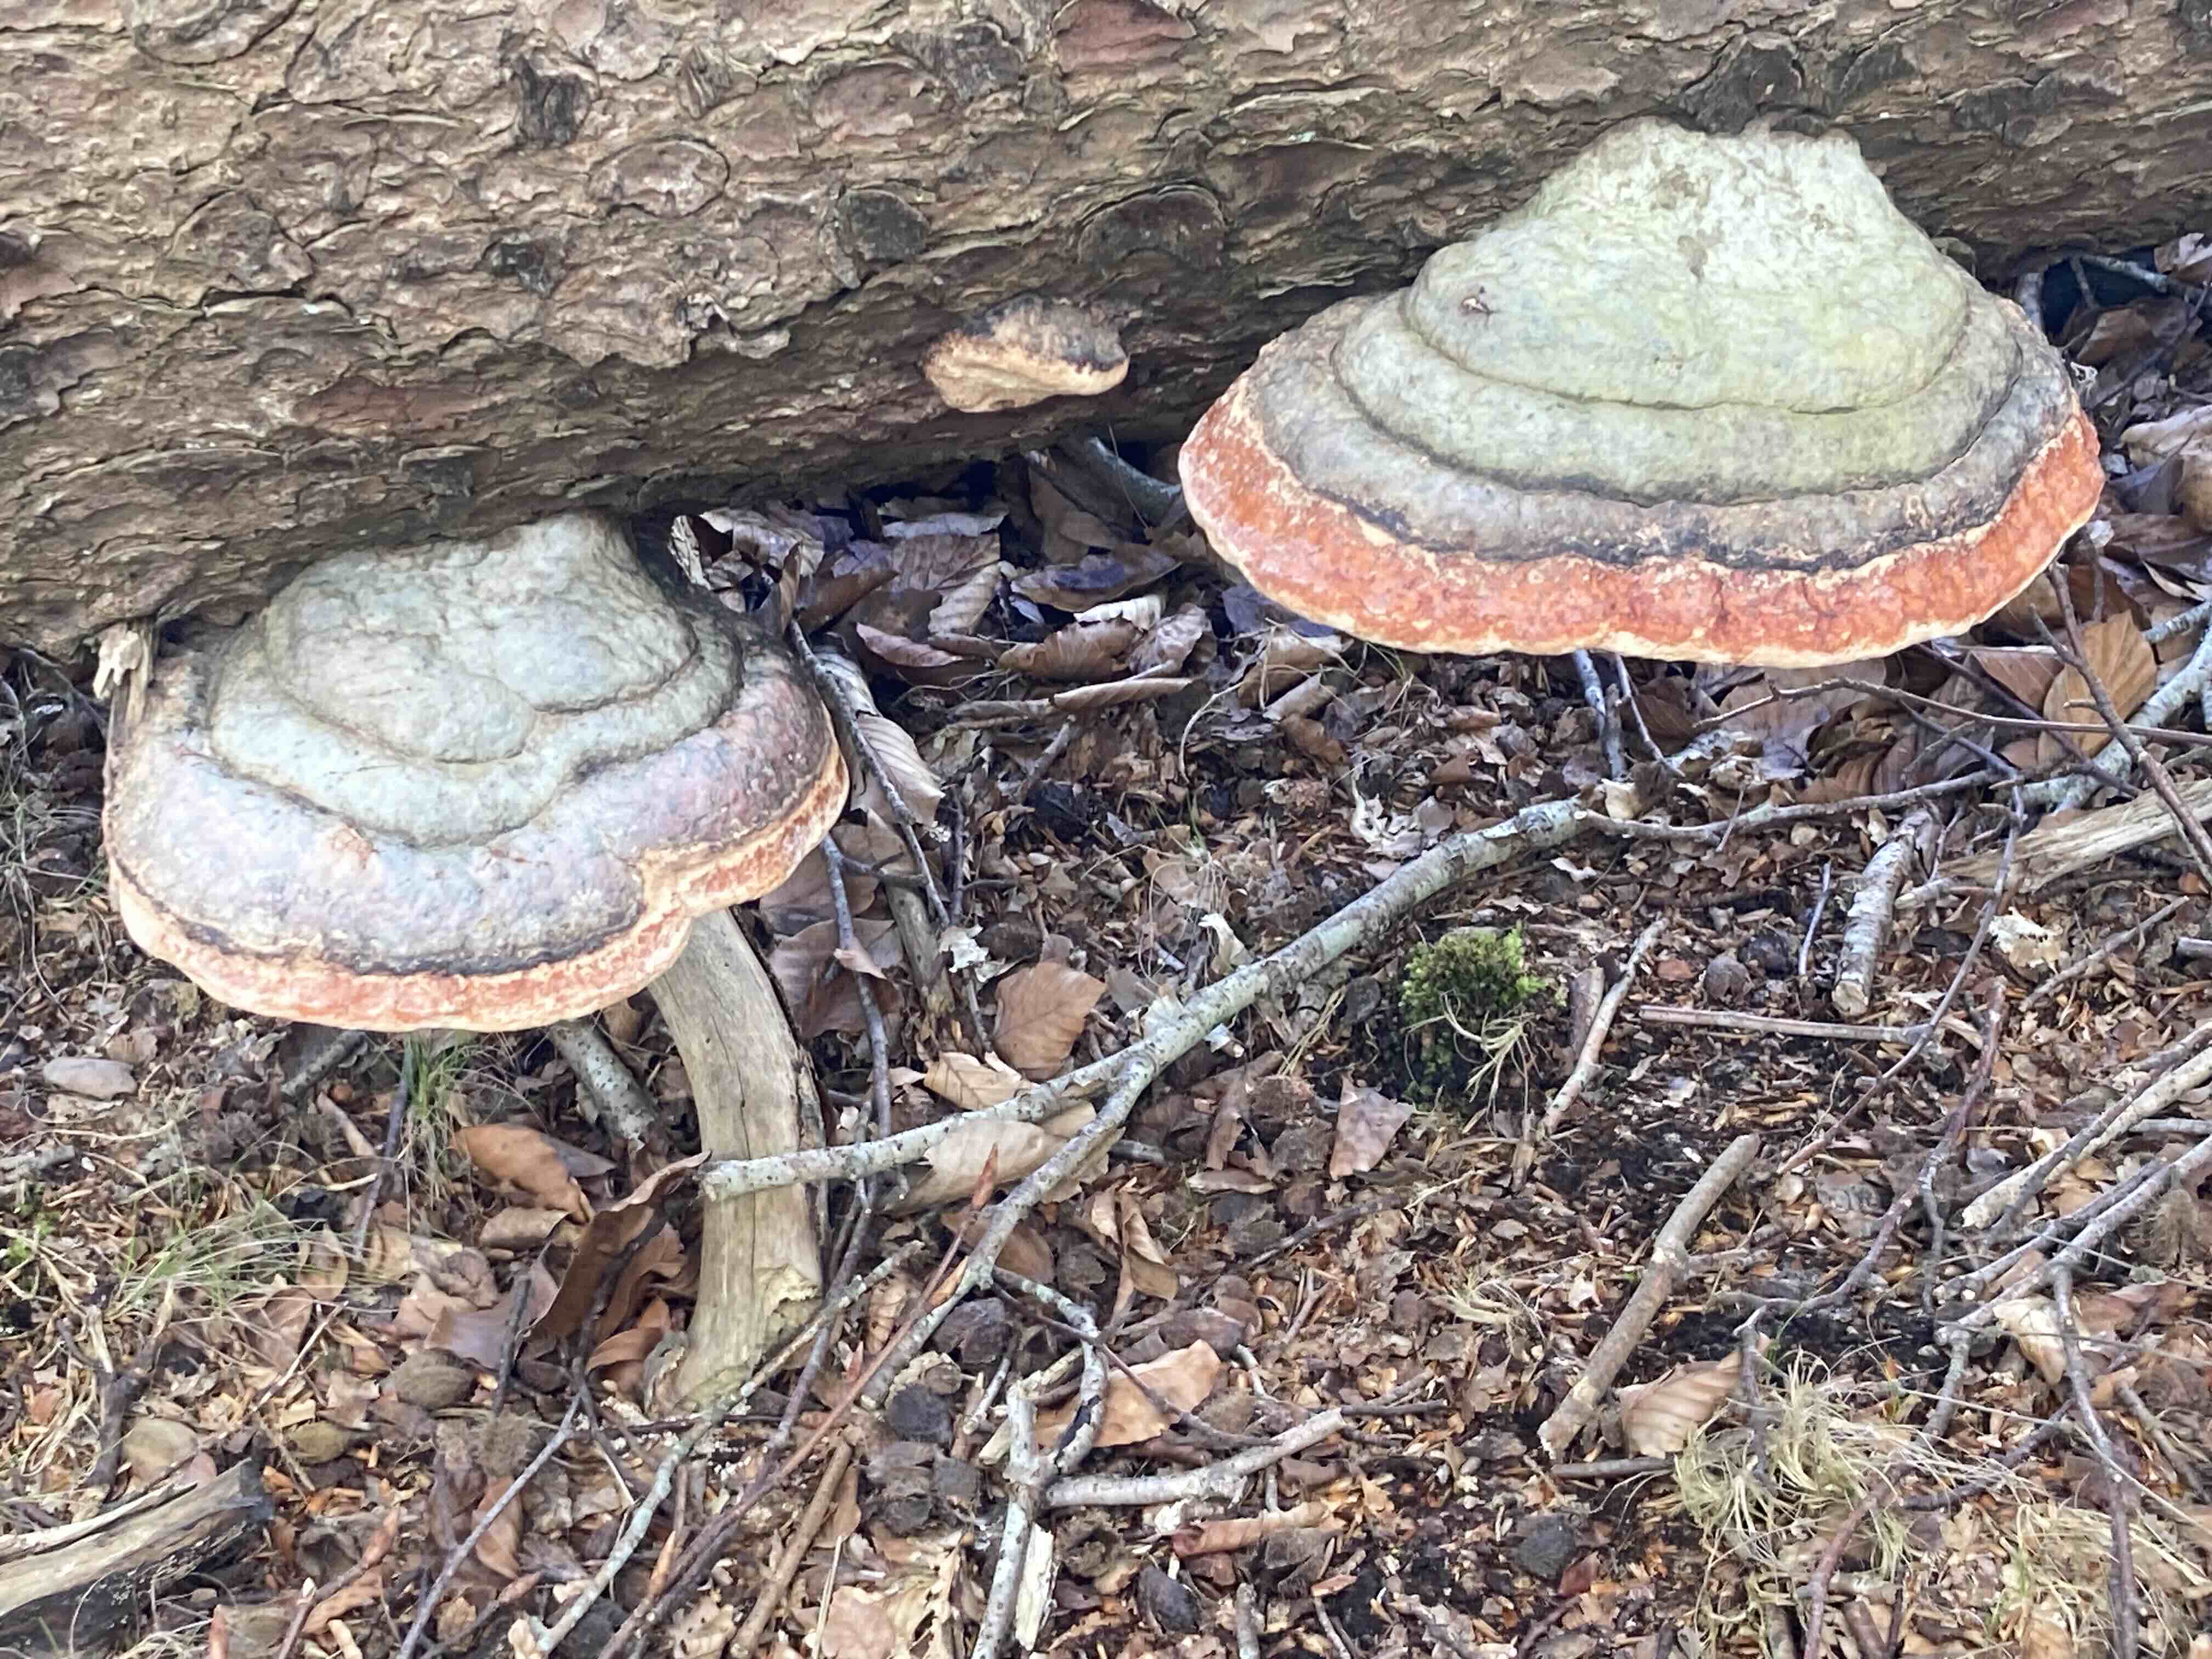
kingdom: Fungi
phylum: Basidiomycota
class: Agaricomycetes
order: Polyporales
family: Fomitopsidaceae
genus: Fomitopsis
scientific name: Fomitopsis pinicola
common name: randbæltet hovporesvamp
